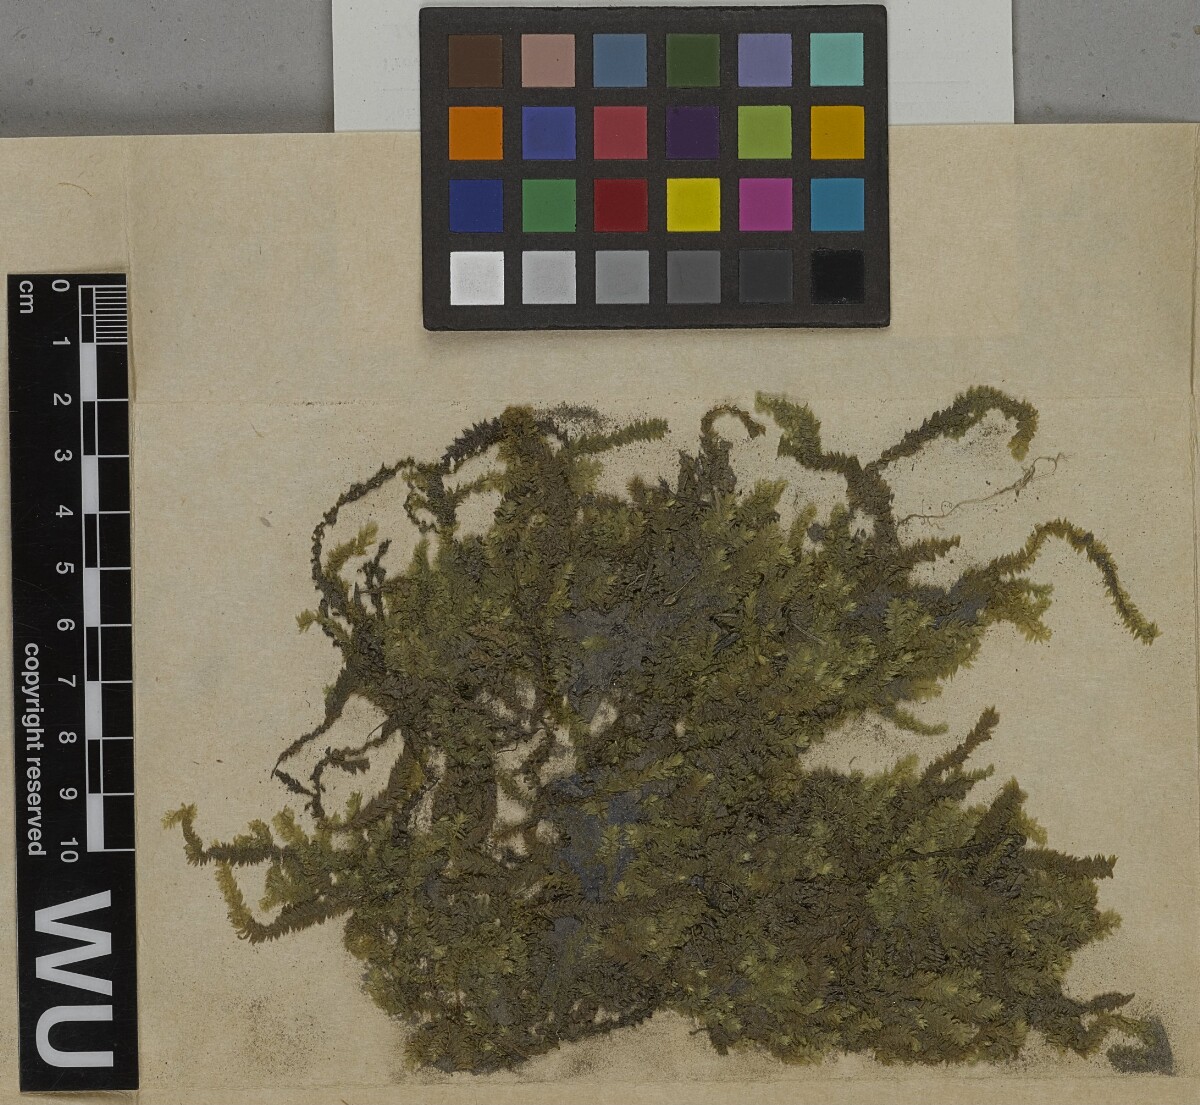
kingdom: Plantae
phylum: Bryophyta
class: Bryopsida
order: Hypnales
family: Taxiphyllaceae
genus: Taxiphyllum
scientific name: Taxiphyllum alternans
